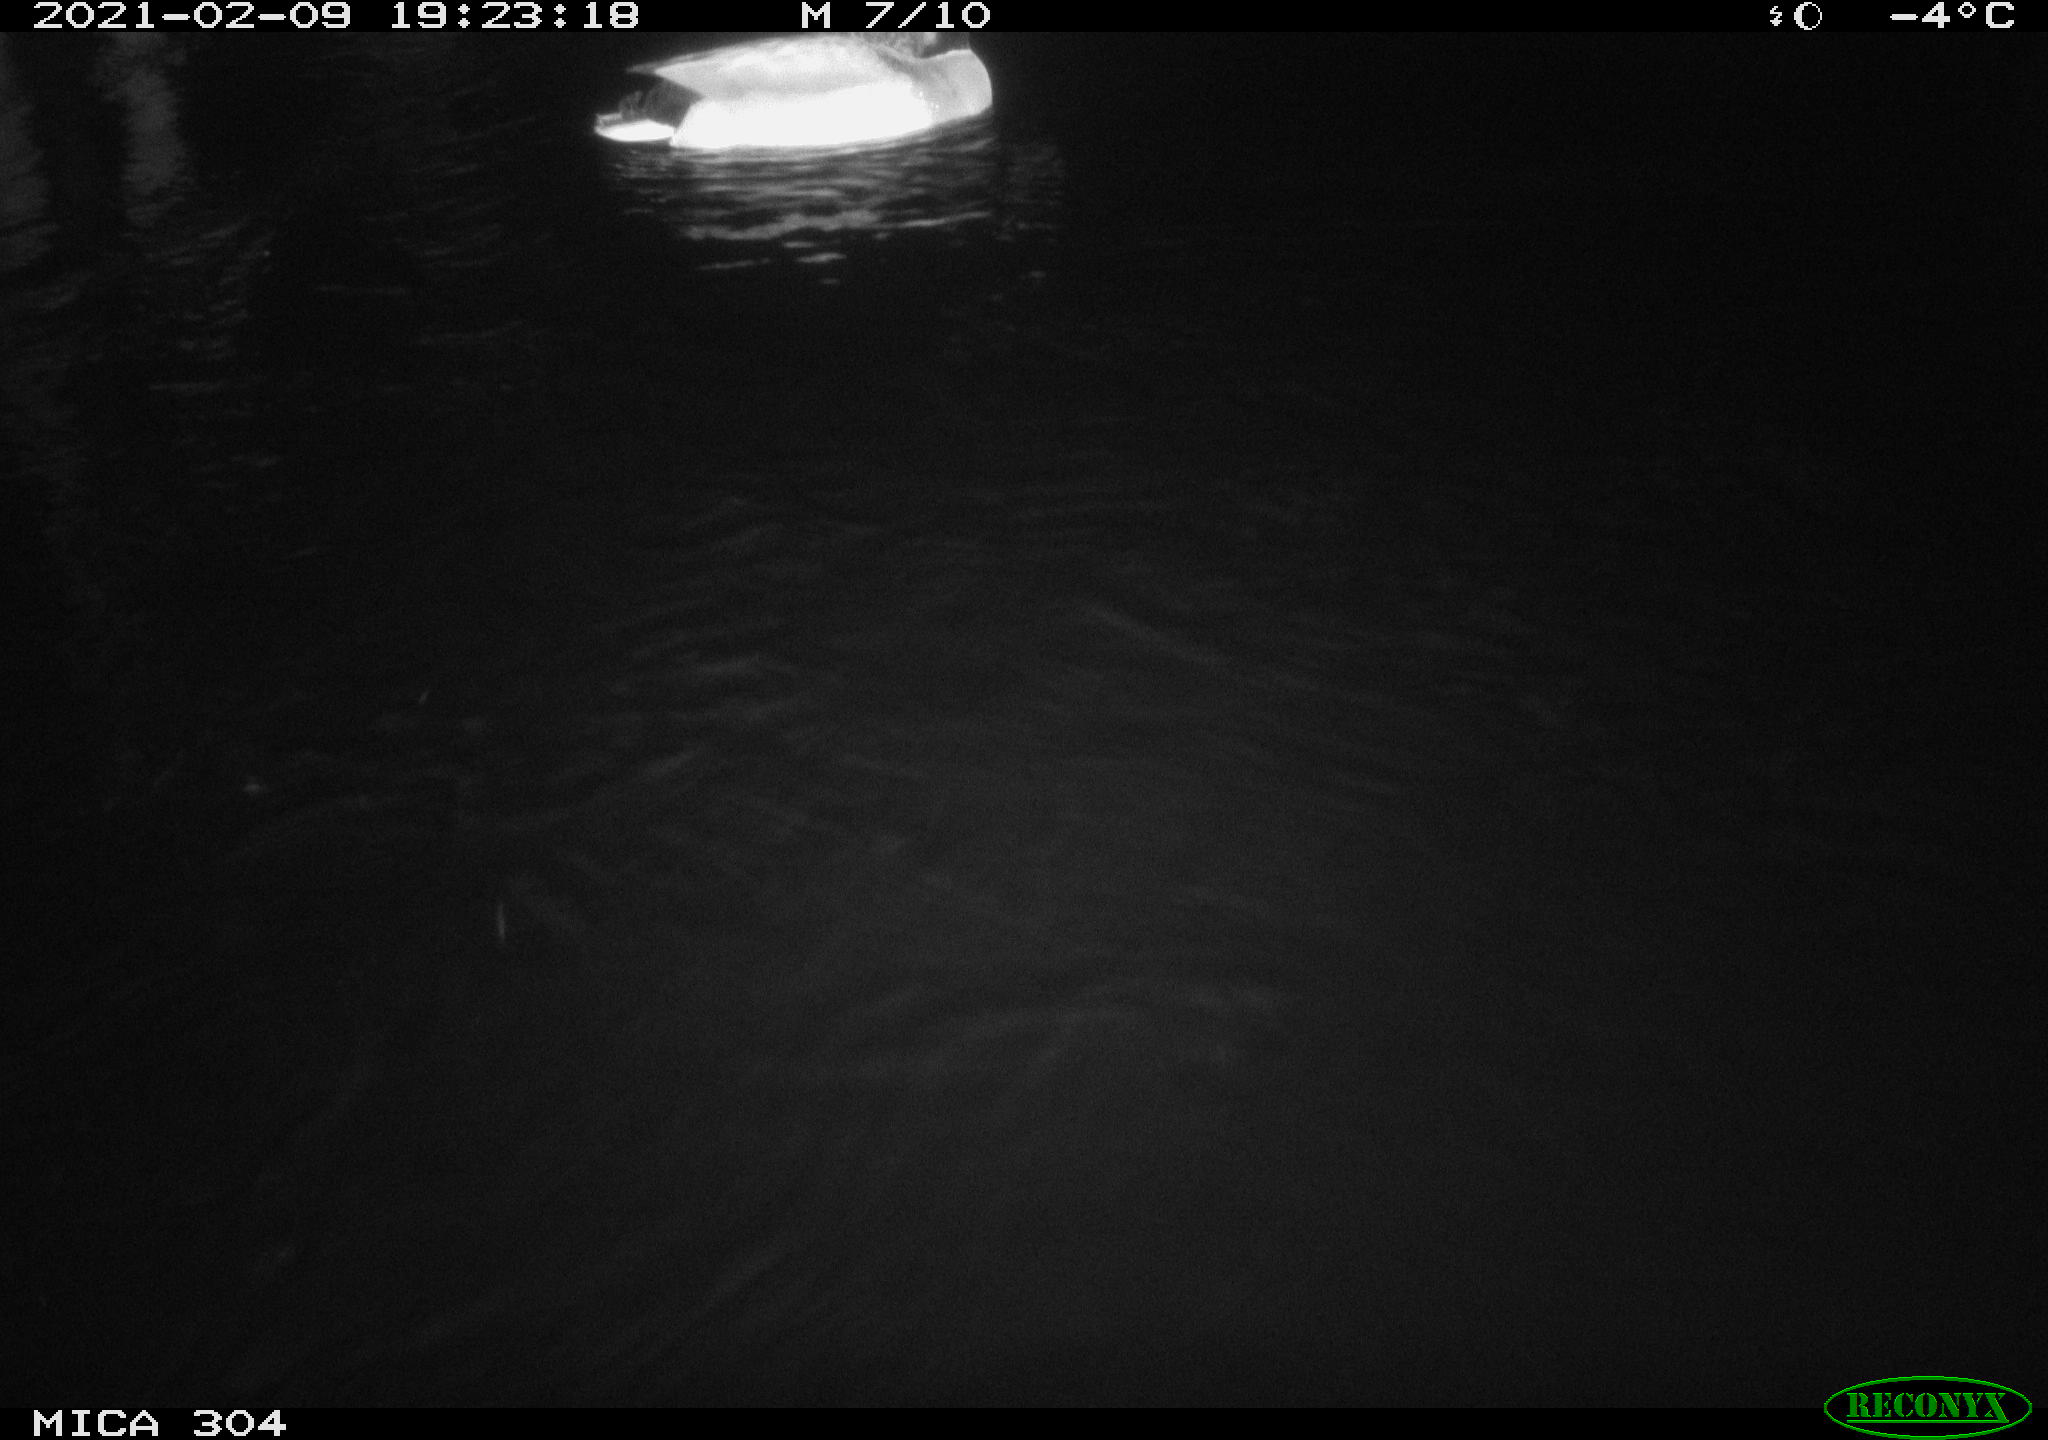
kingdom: Animalia
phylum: Chordata
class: Aves
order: Anseriformes
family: Anatidae
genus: Anas
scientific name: Anas platyrhynchos
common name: Mallard
